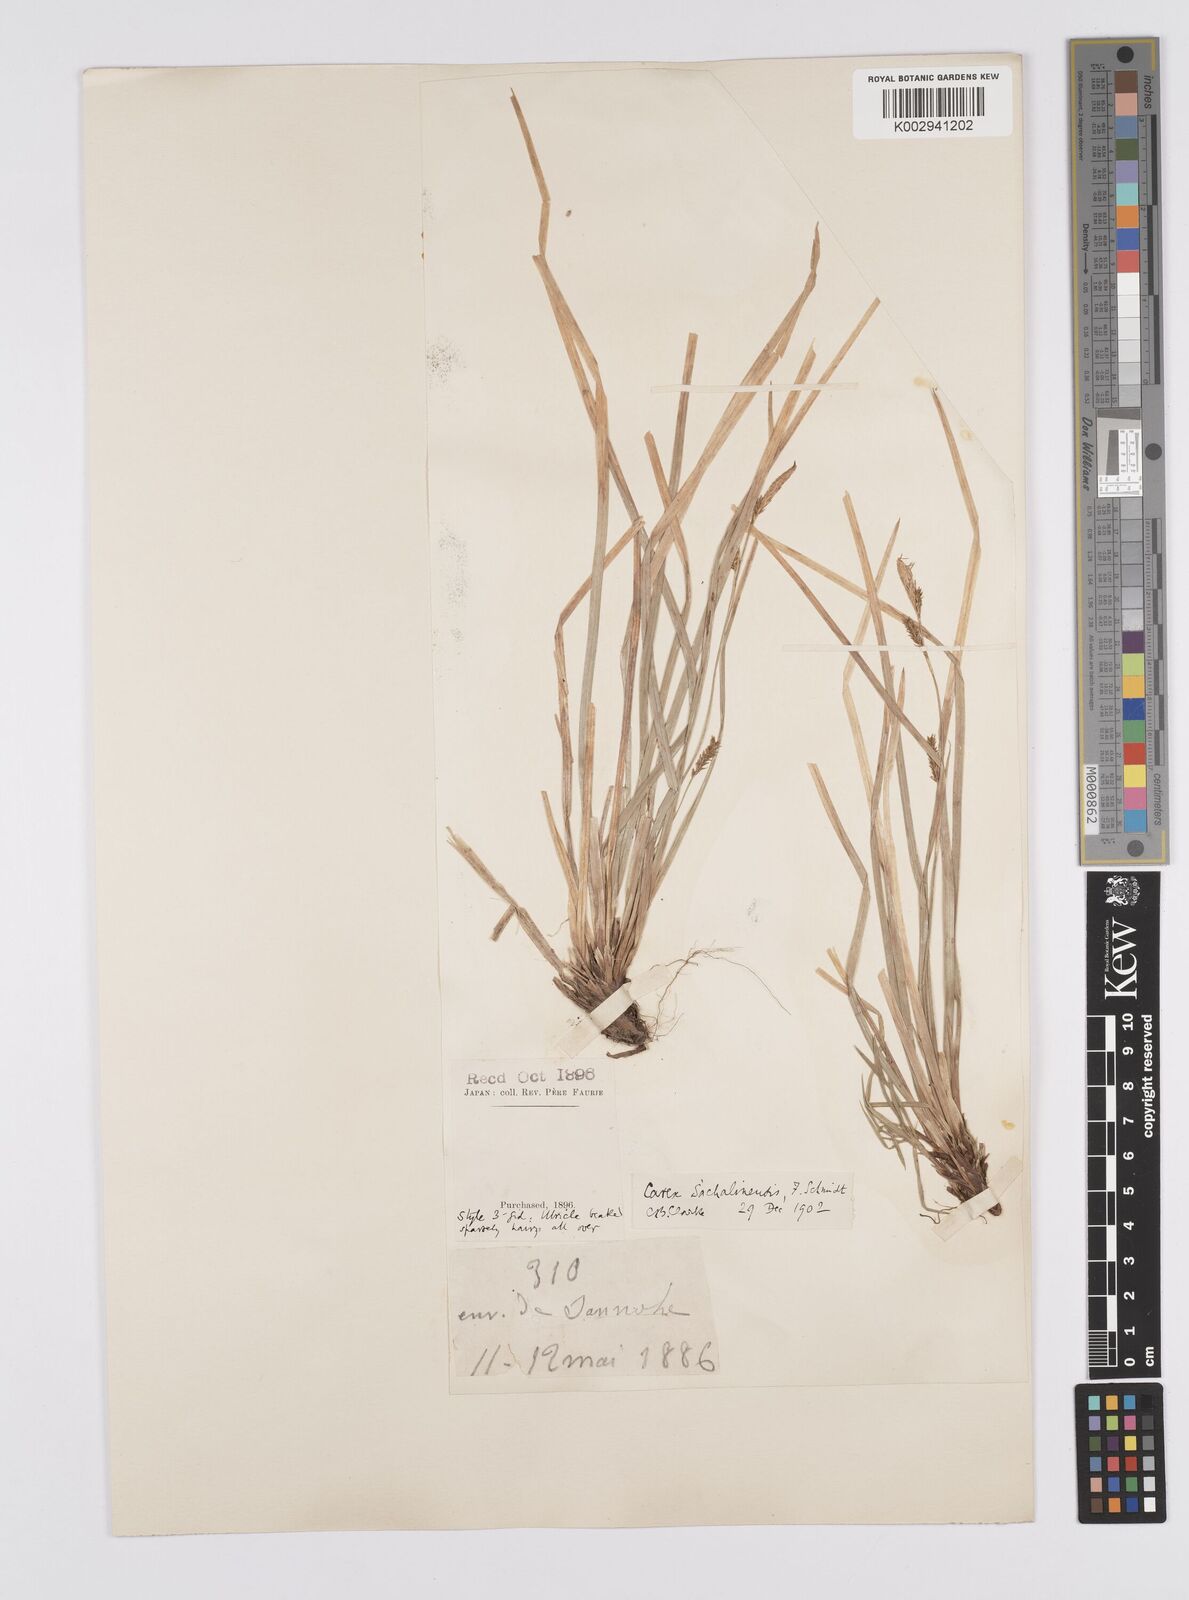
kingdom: Plantae
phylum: Tracheophyta
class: Liliopsida
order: Poales
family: Cyperaceae
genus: Carex
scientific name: Carex pisiformis
